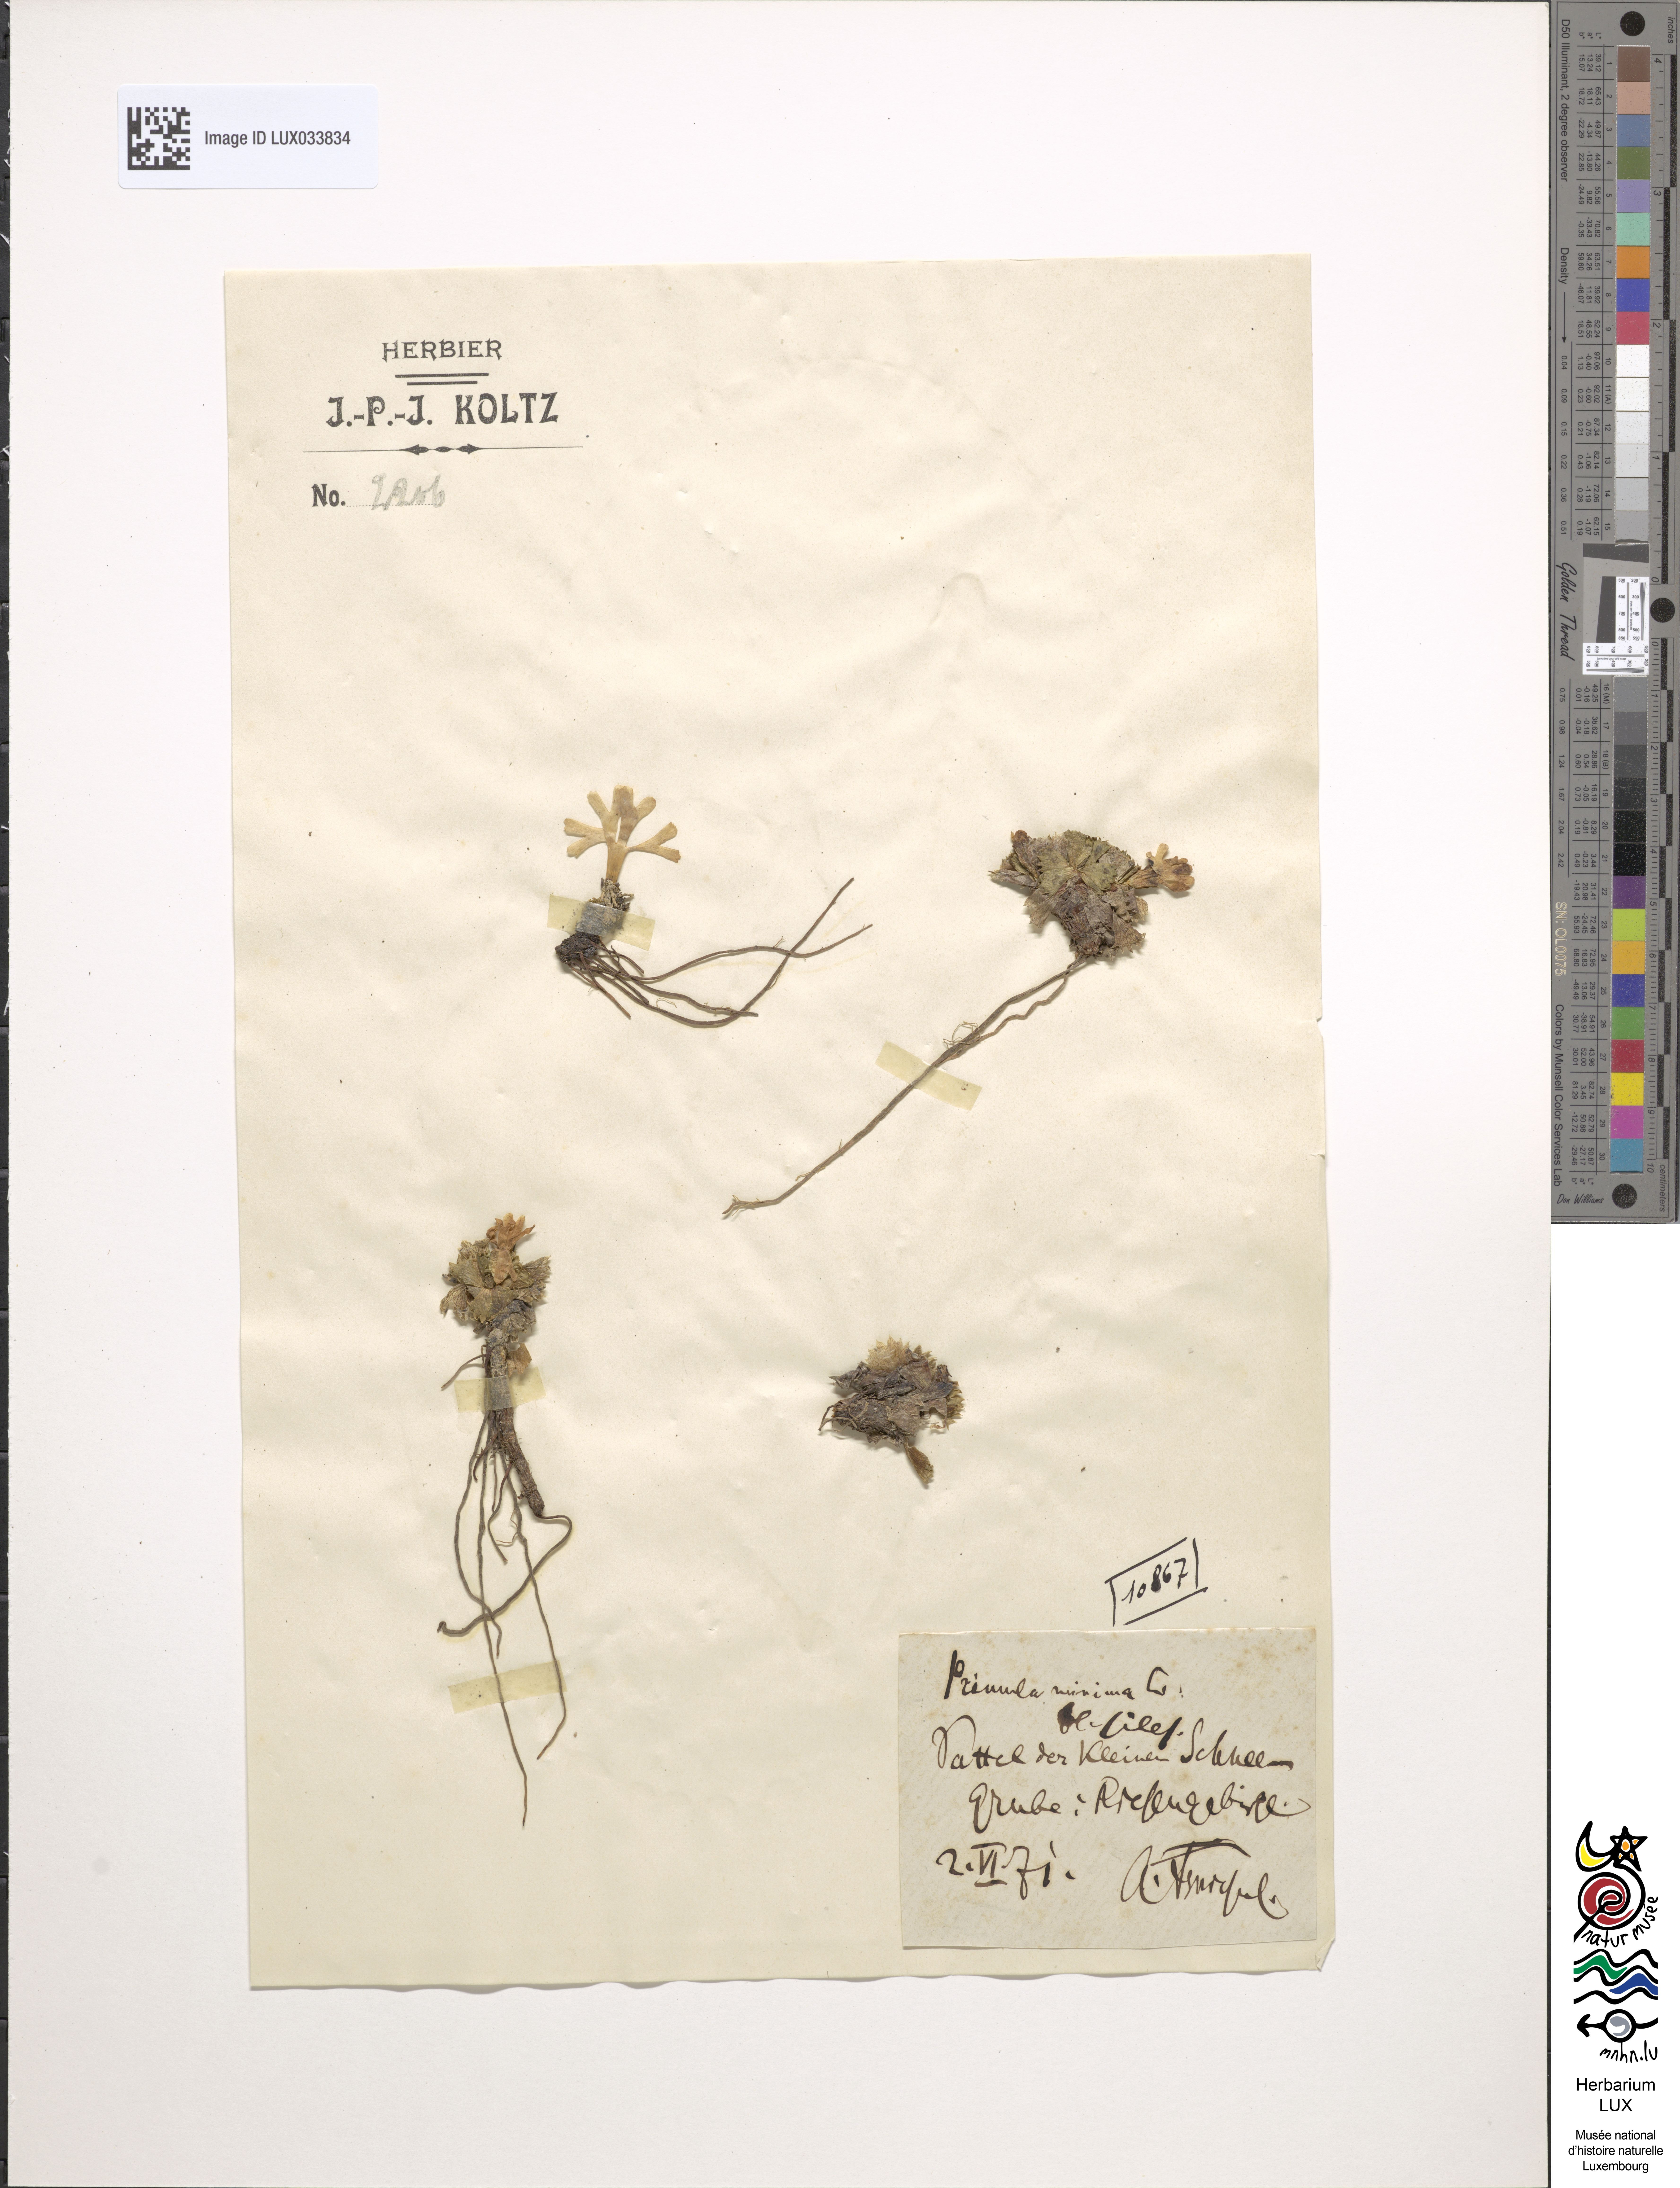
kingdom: Plantae
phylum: Tracheophyta
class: Magnoliopsida
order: Ericales
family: Primulaceae
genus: Primula
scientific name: Primula minima
